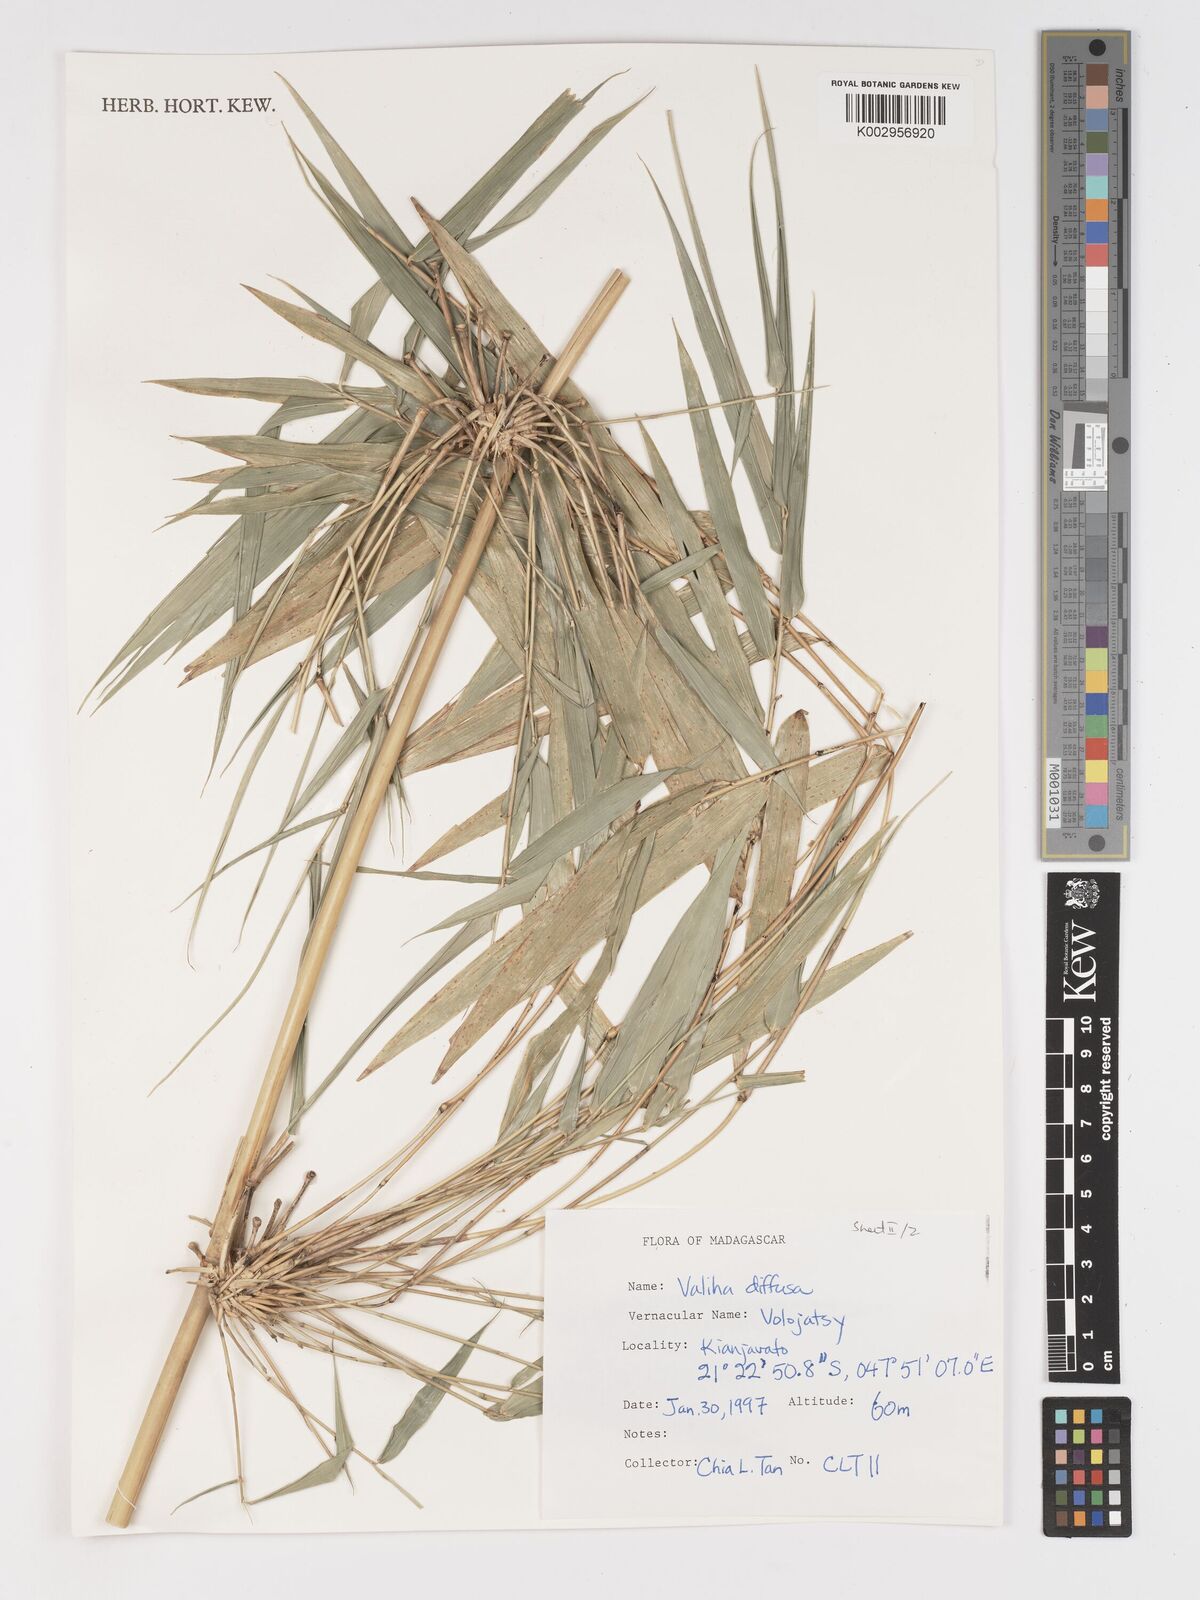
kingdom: Plantae
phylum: Tracheophyta
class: Liliopsida
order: Poales
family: Poaceae
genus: Valiha
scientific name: Valiha diffusa
